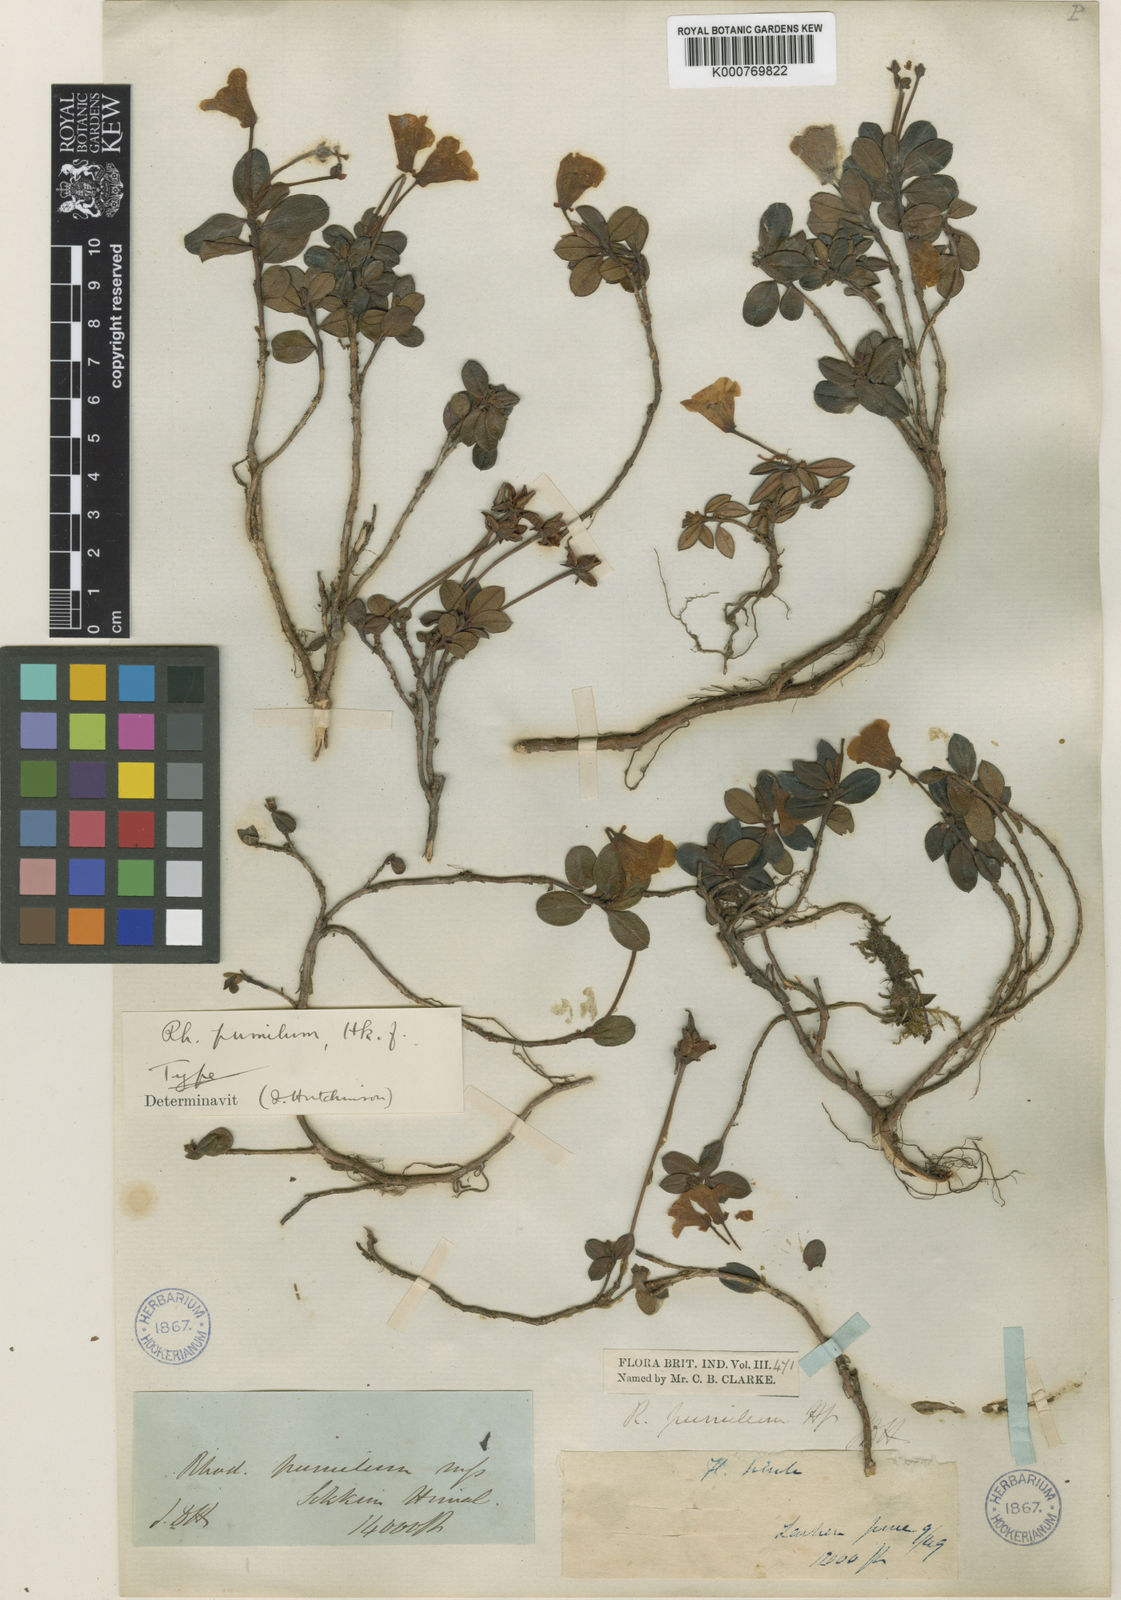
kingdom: Plantae
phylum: Tracheophyta
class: Magnoliopsida
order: Ericales
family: Ericaceae
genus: Rhododendron
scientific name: Rhododendron pumilum
